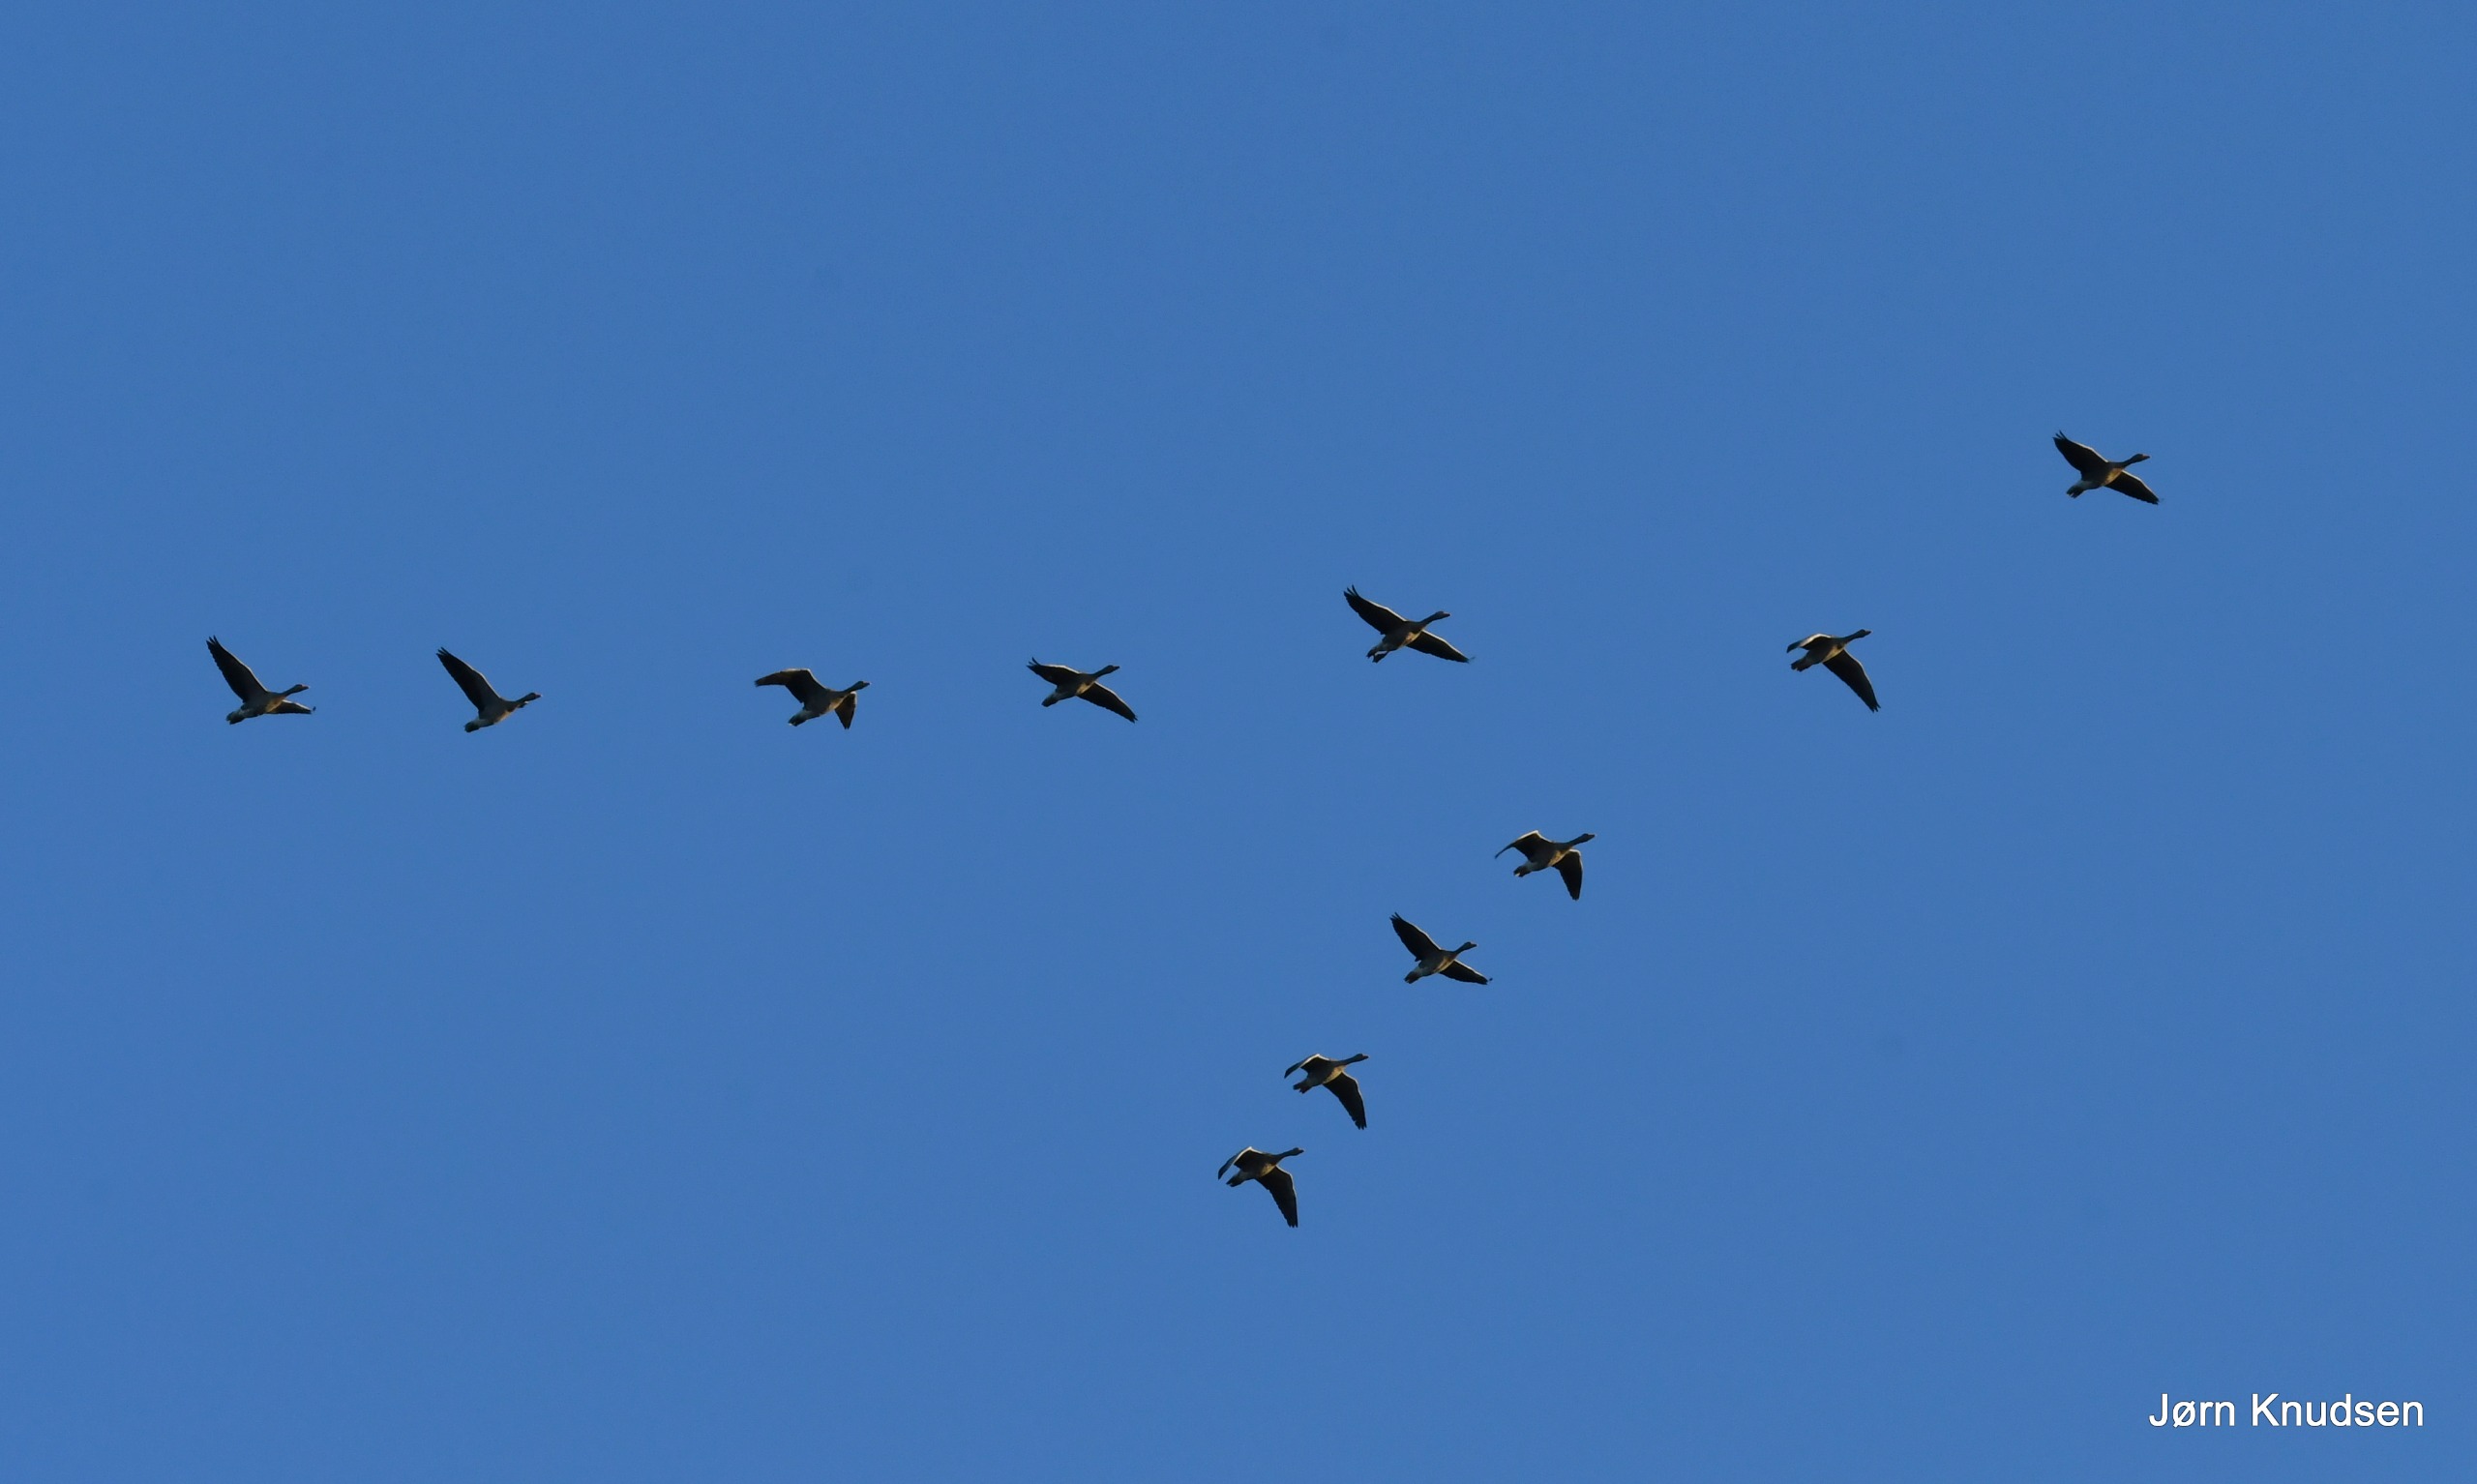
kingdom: Animalia
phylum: Chordata
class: Aves
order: Anseriformes
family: Anatidae
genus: Anser
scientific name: Anser anser
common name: Grågås
